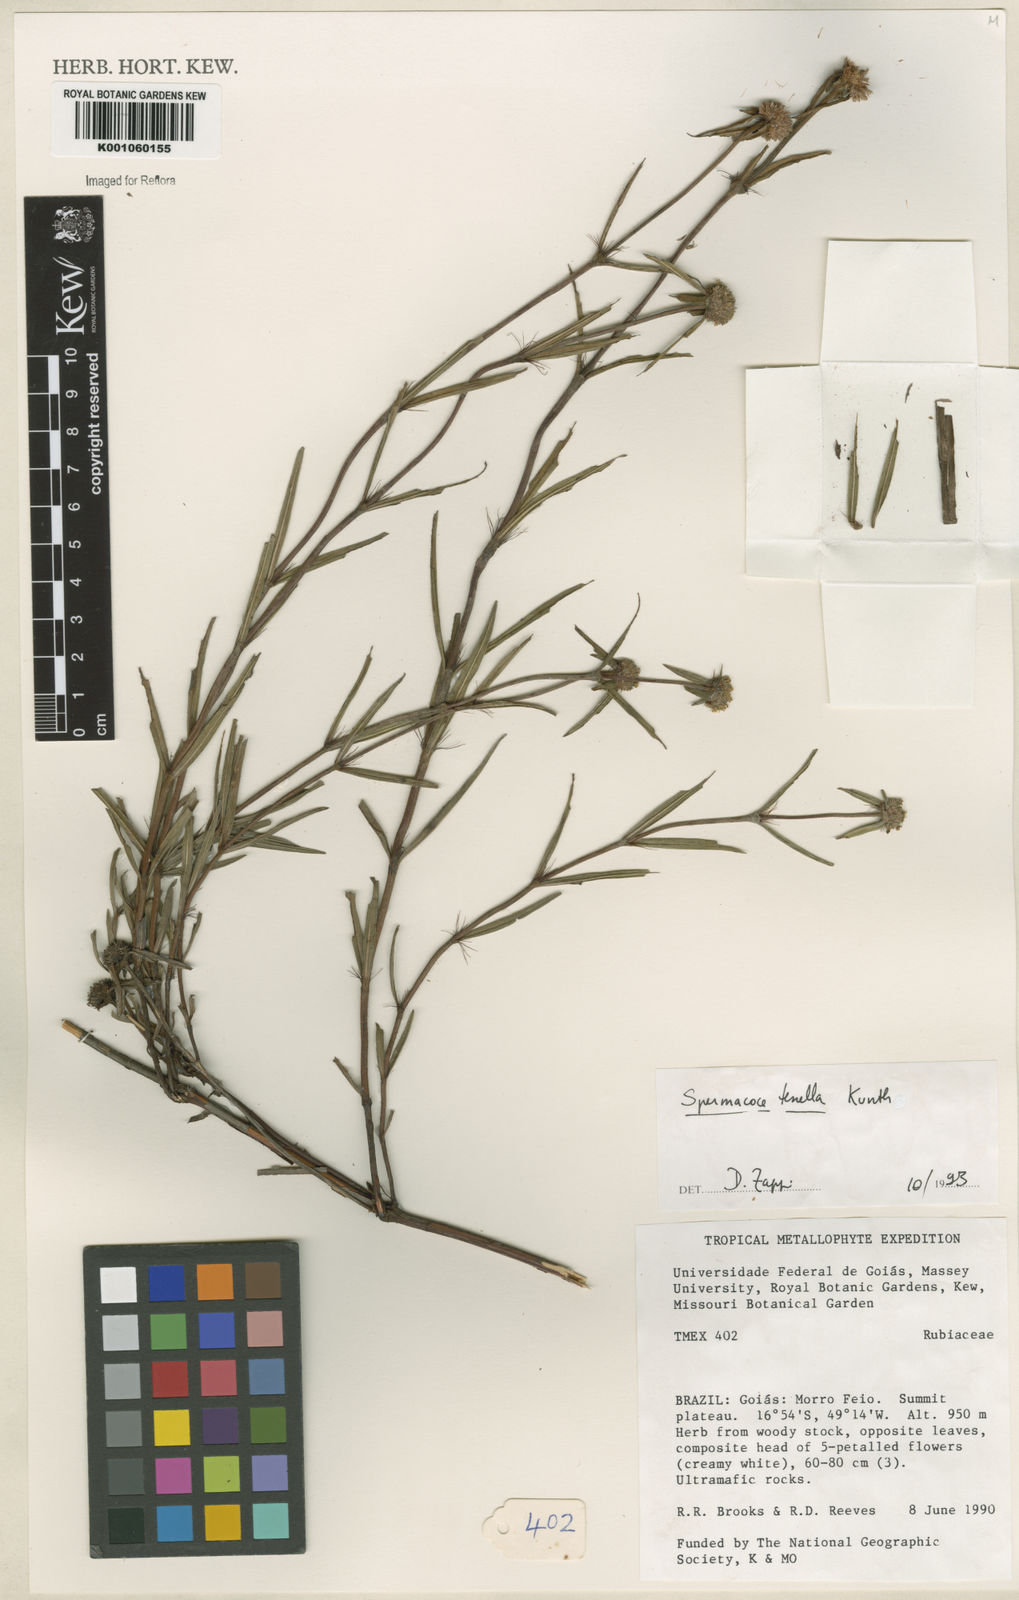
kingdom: Plantae
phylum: Tracheophyta
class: Magnoliopsida
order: Gentianales
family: Rubiaceae
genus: Spermacoce
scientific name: Spermacoce orinocensis
